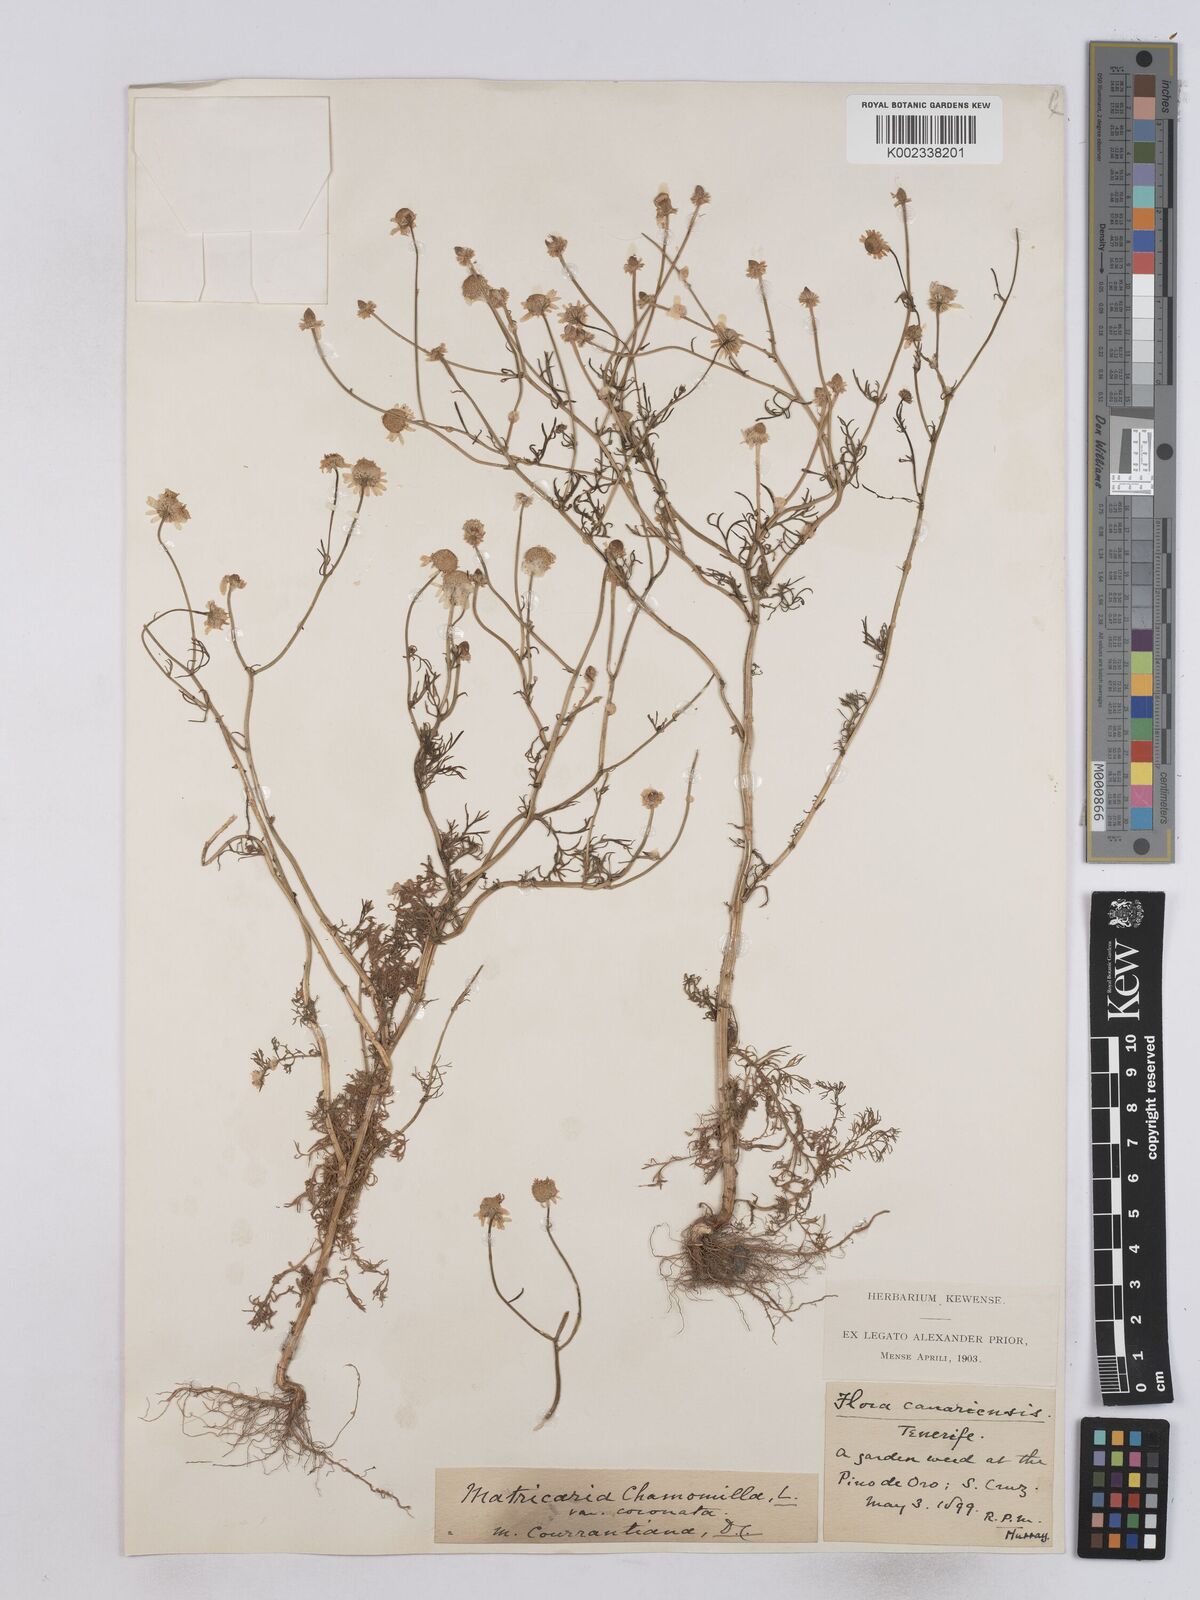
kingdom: Plantae
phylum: Tracheophyta
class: Magnoliopsida
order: Asterales
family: Asteraceae
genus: Matricaria
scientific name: Matricaria aurea
